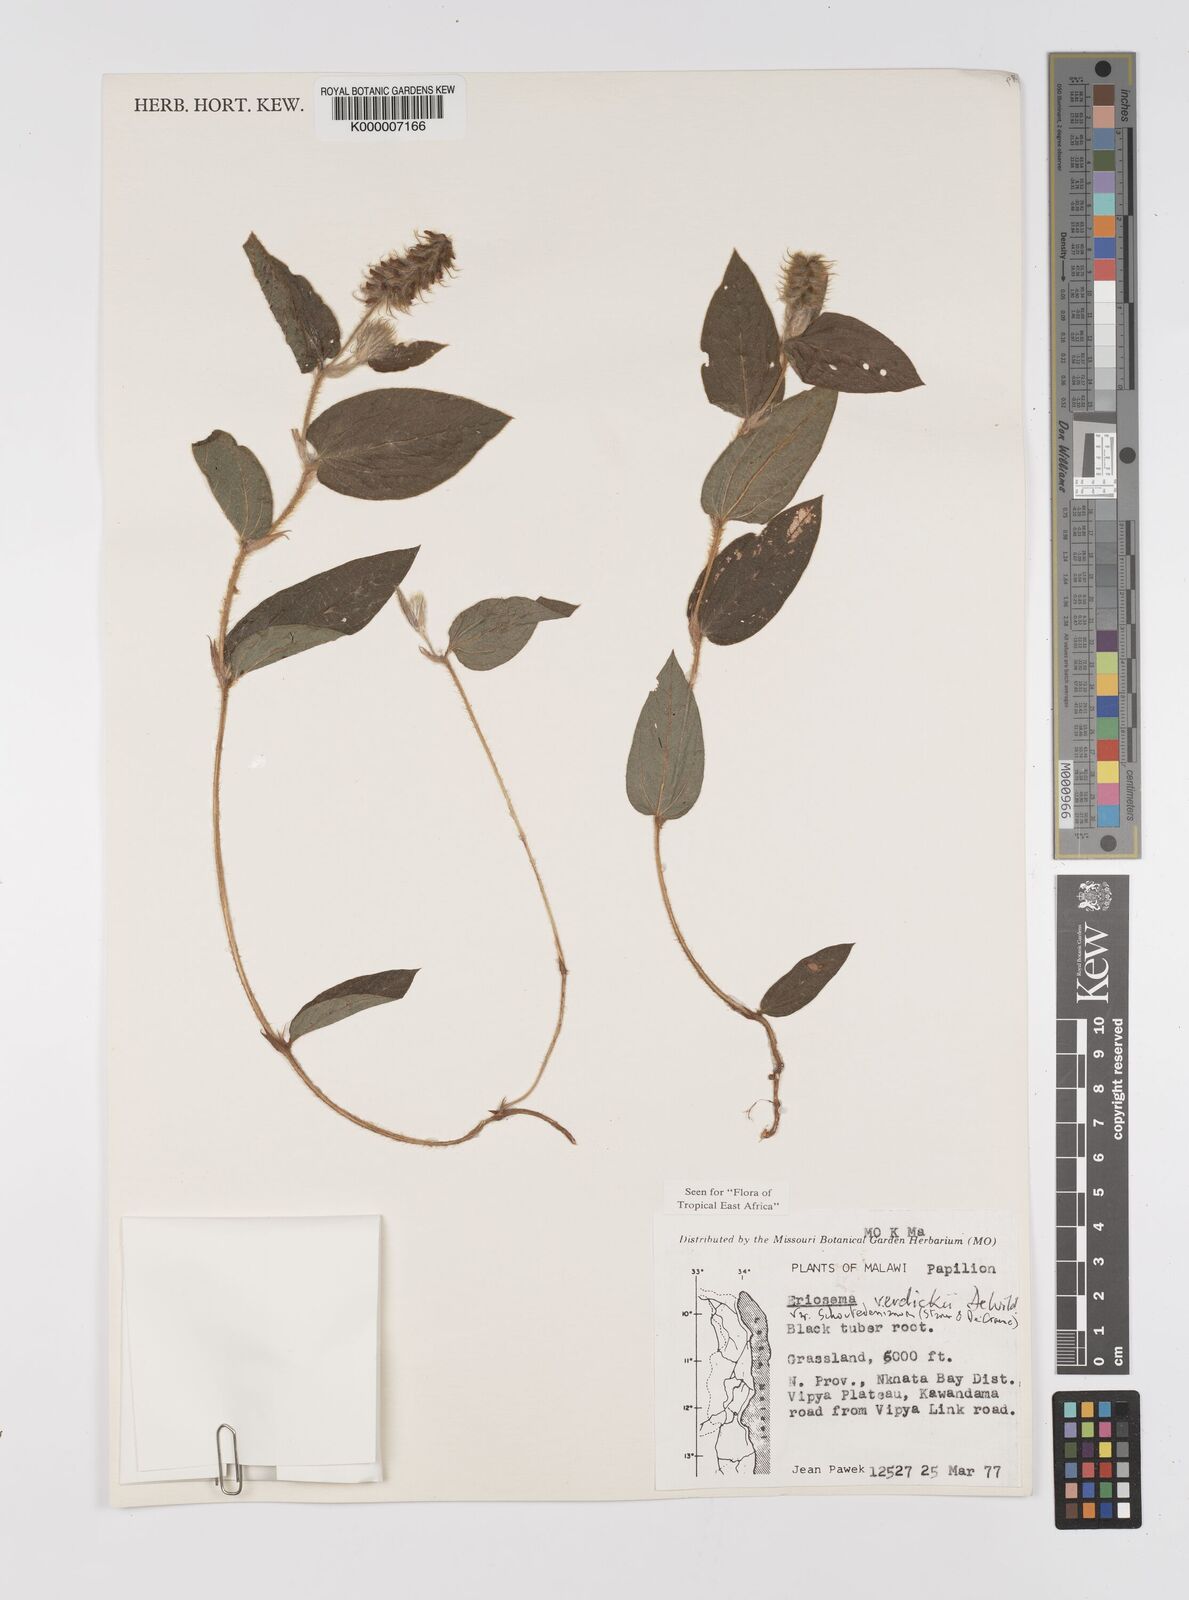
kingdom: Plantae
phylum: Tracheophyta
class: Magnoliopsida
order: Fabales
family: Fabaceae
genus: Eriosema
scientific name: Eriosema verdickii
